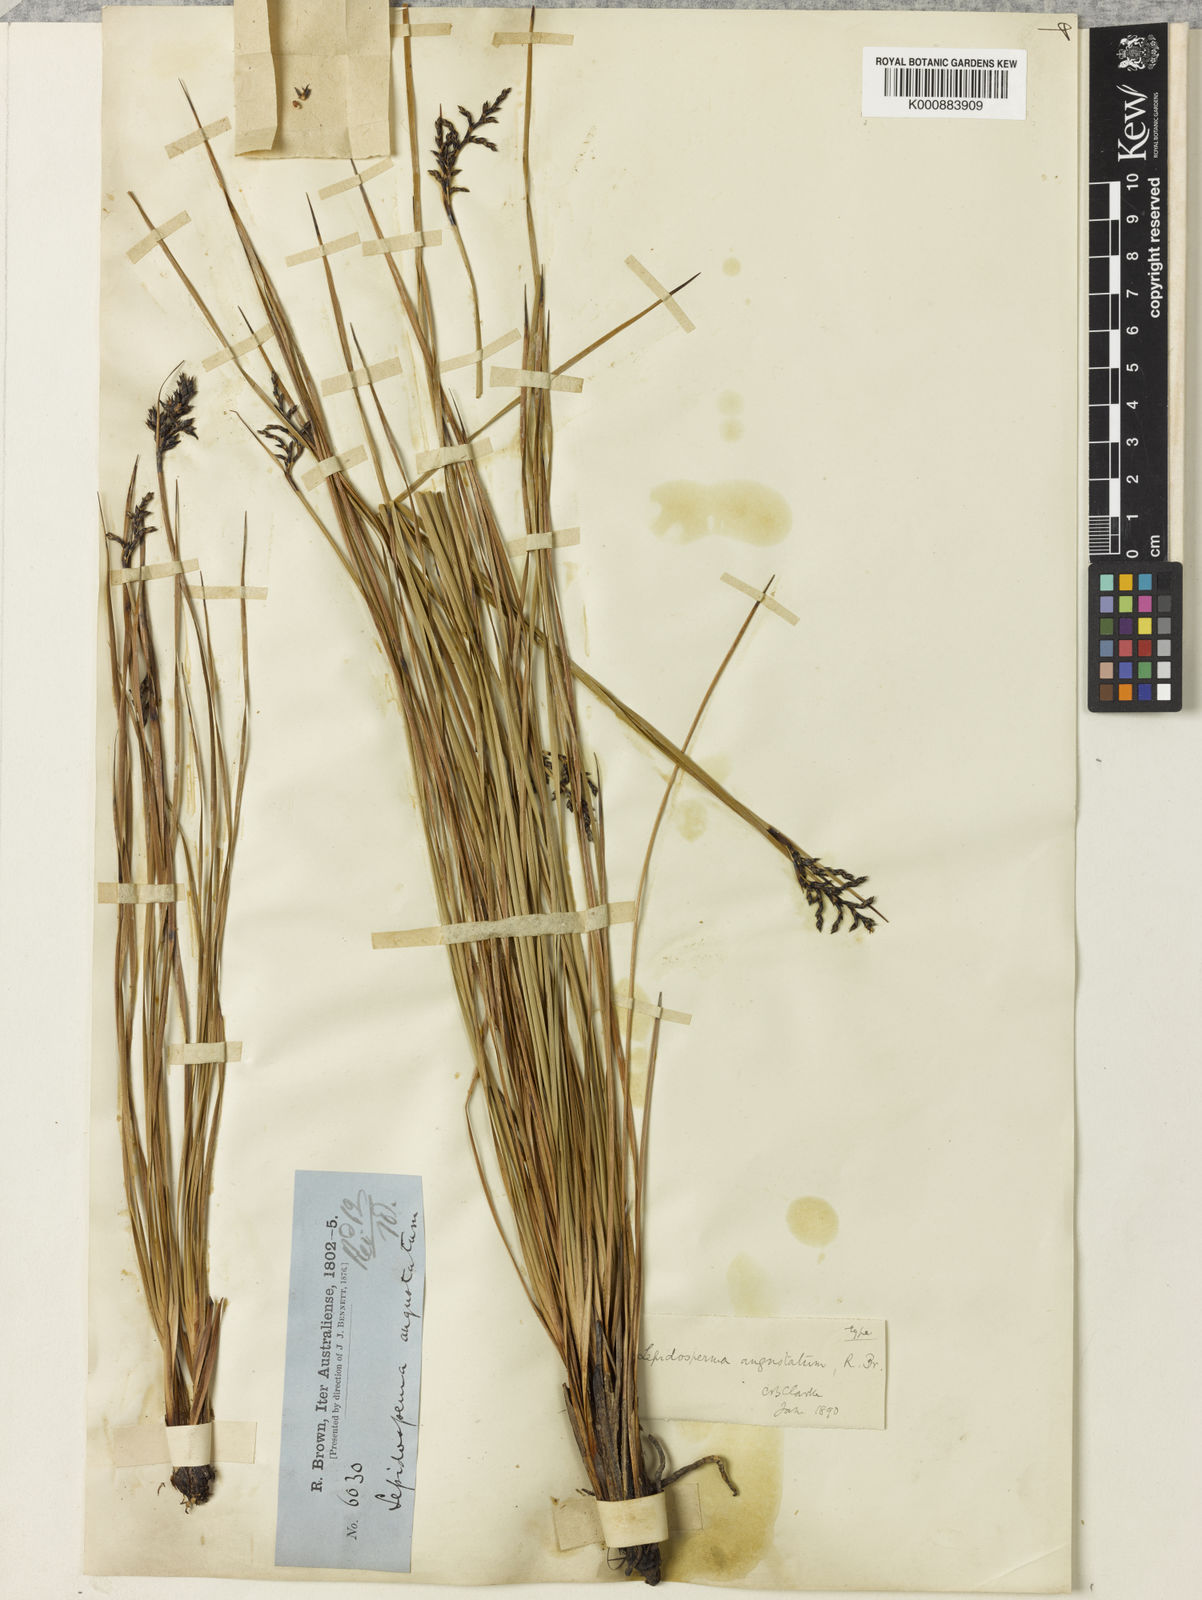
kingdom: Plantae
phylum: Tracheophyta
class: Liliopsida
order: Poales
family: Cyperaceae
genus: Lepidosperma
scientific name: Lepidosperma angustatum
